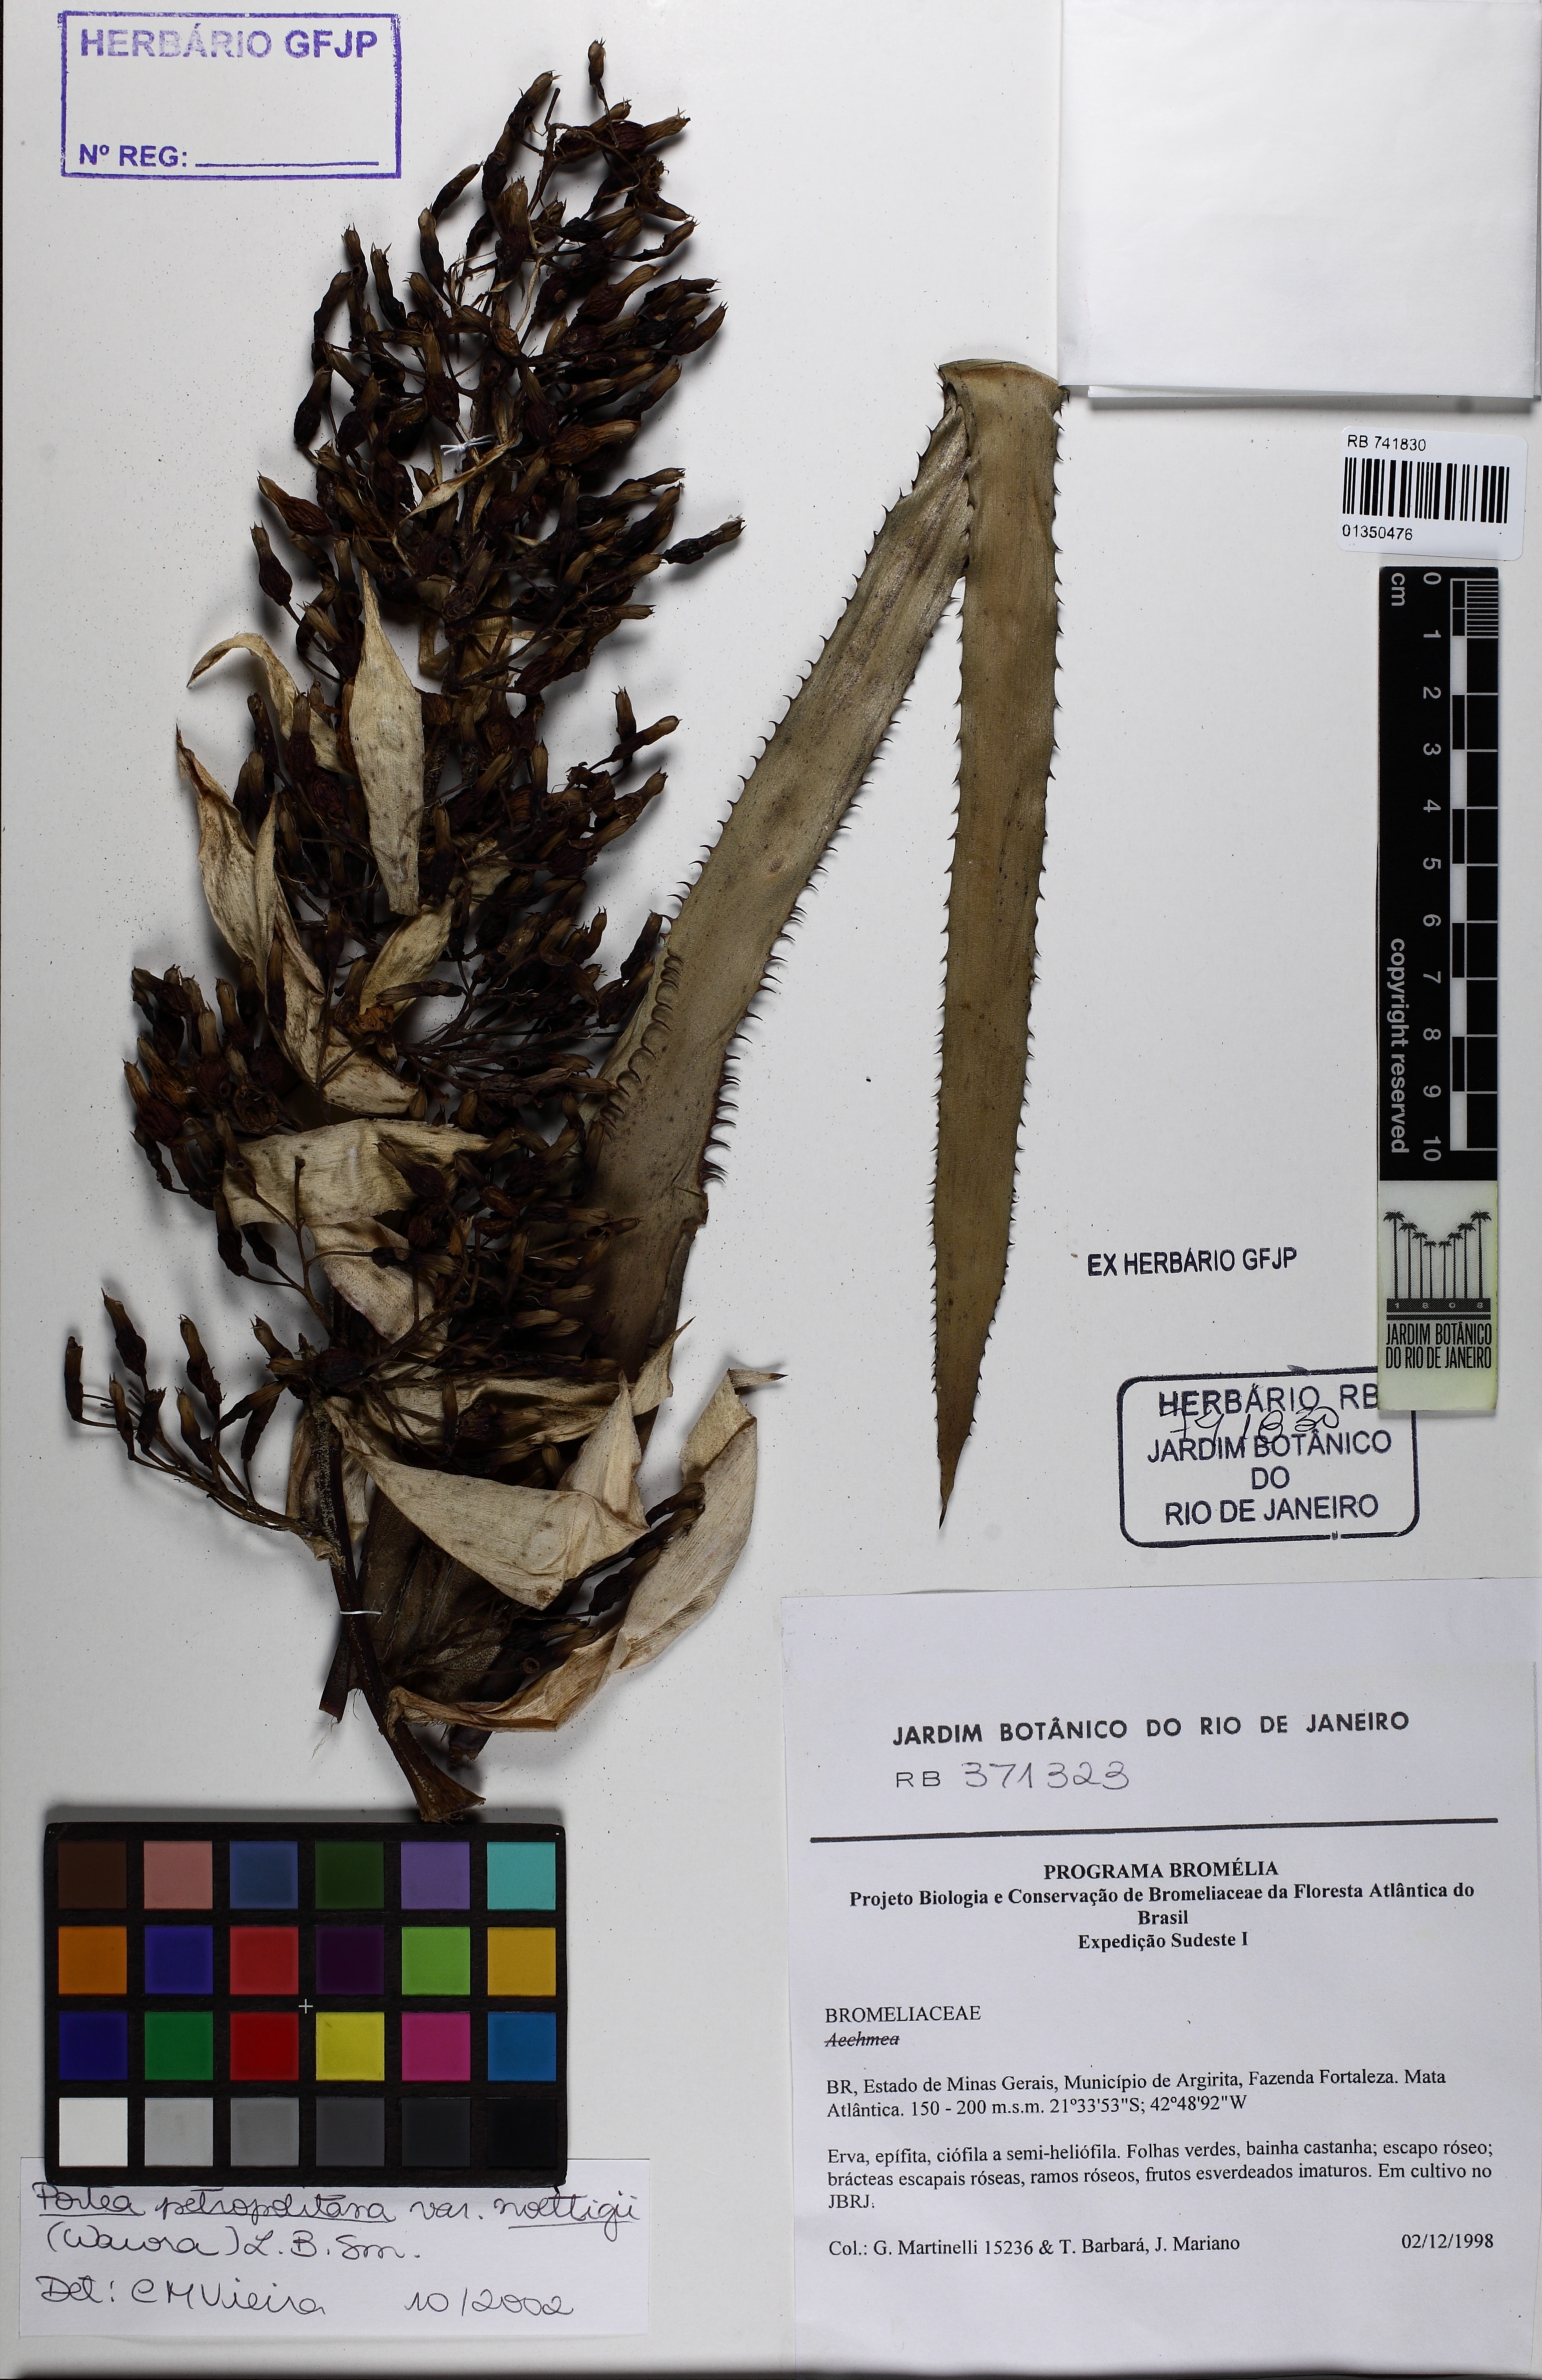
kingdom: Plantae
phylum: Tracheophyta
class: Liliopsida
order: Poales
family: Bromeliaceae
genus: Portea
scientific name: Portea petropolitana
